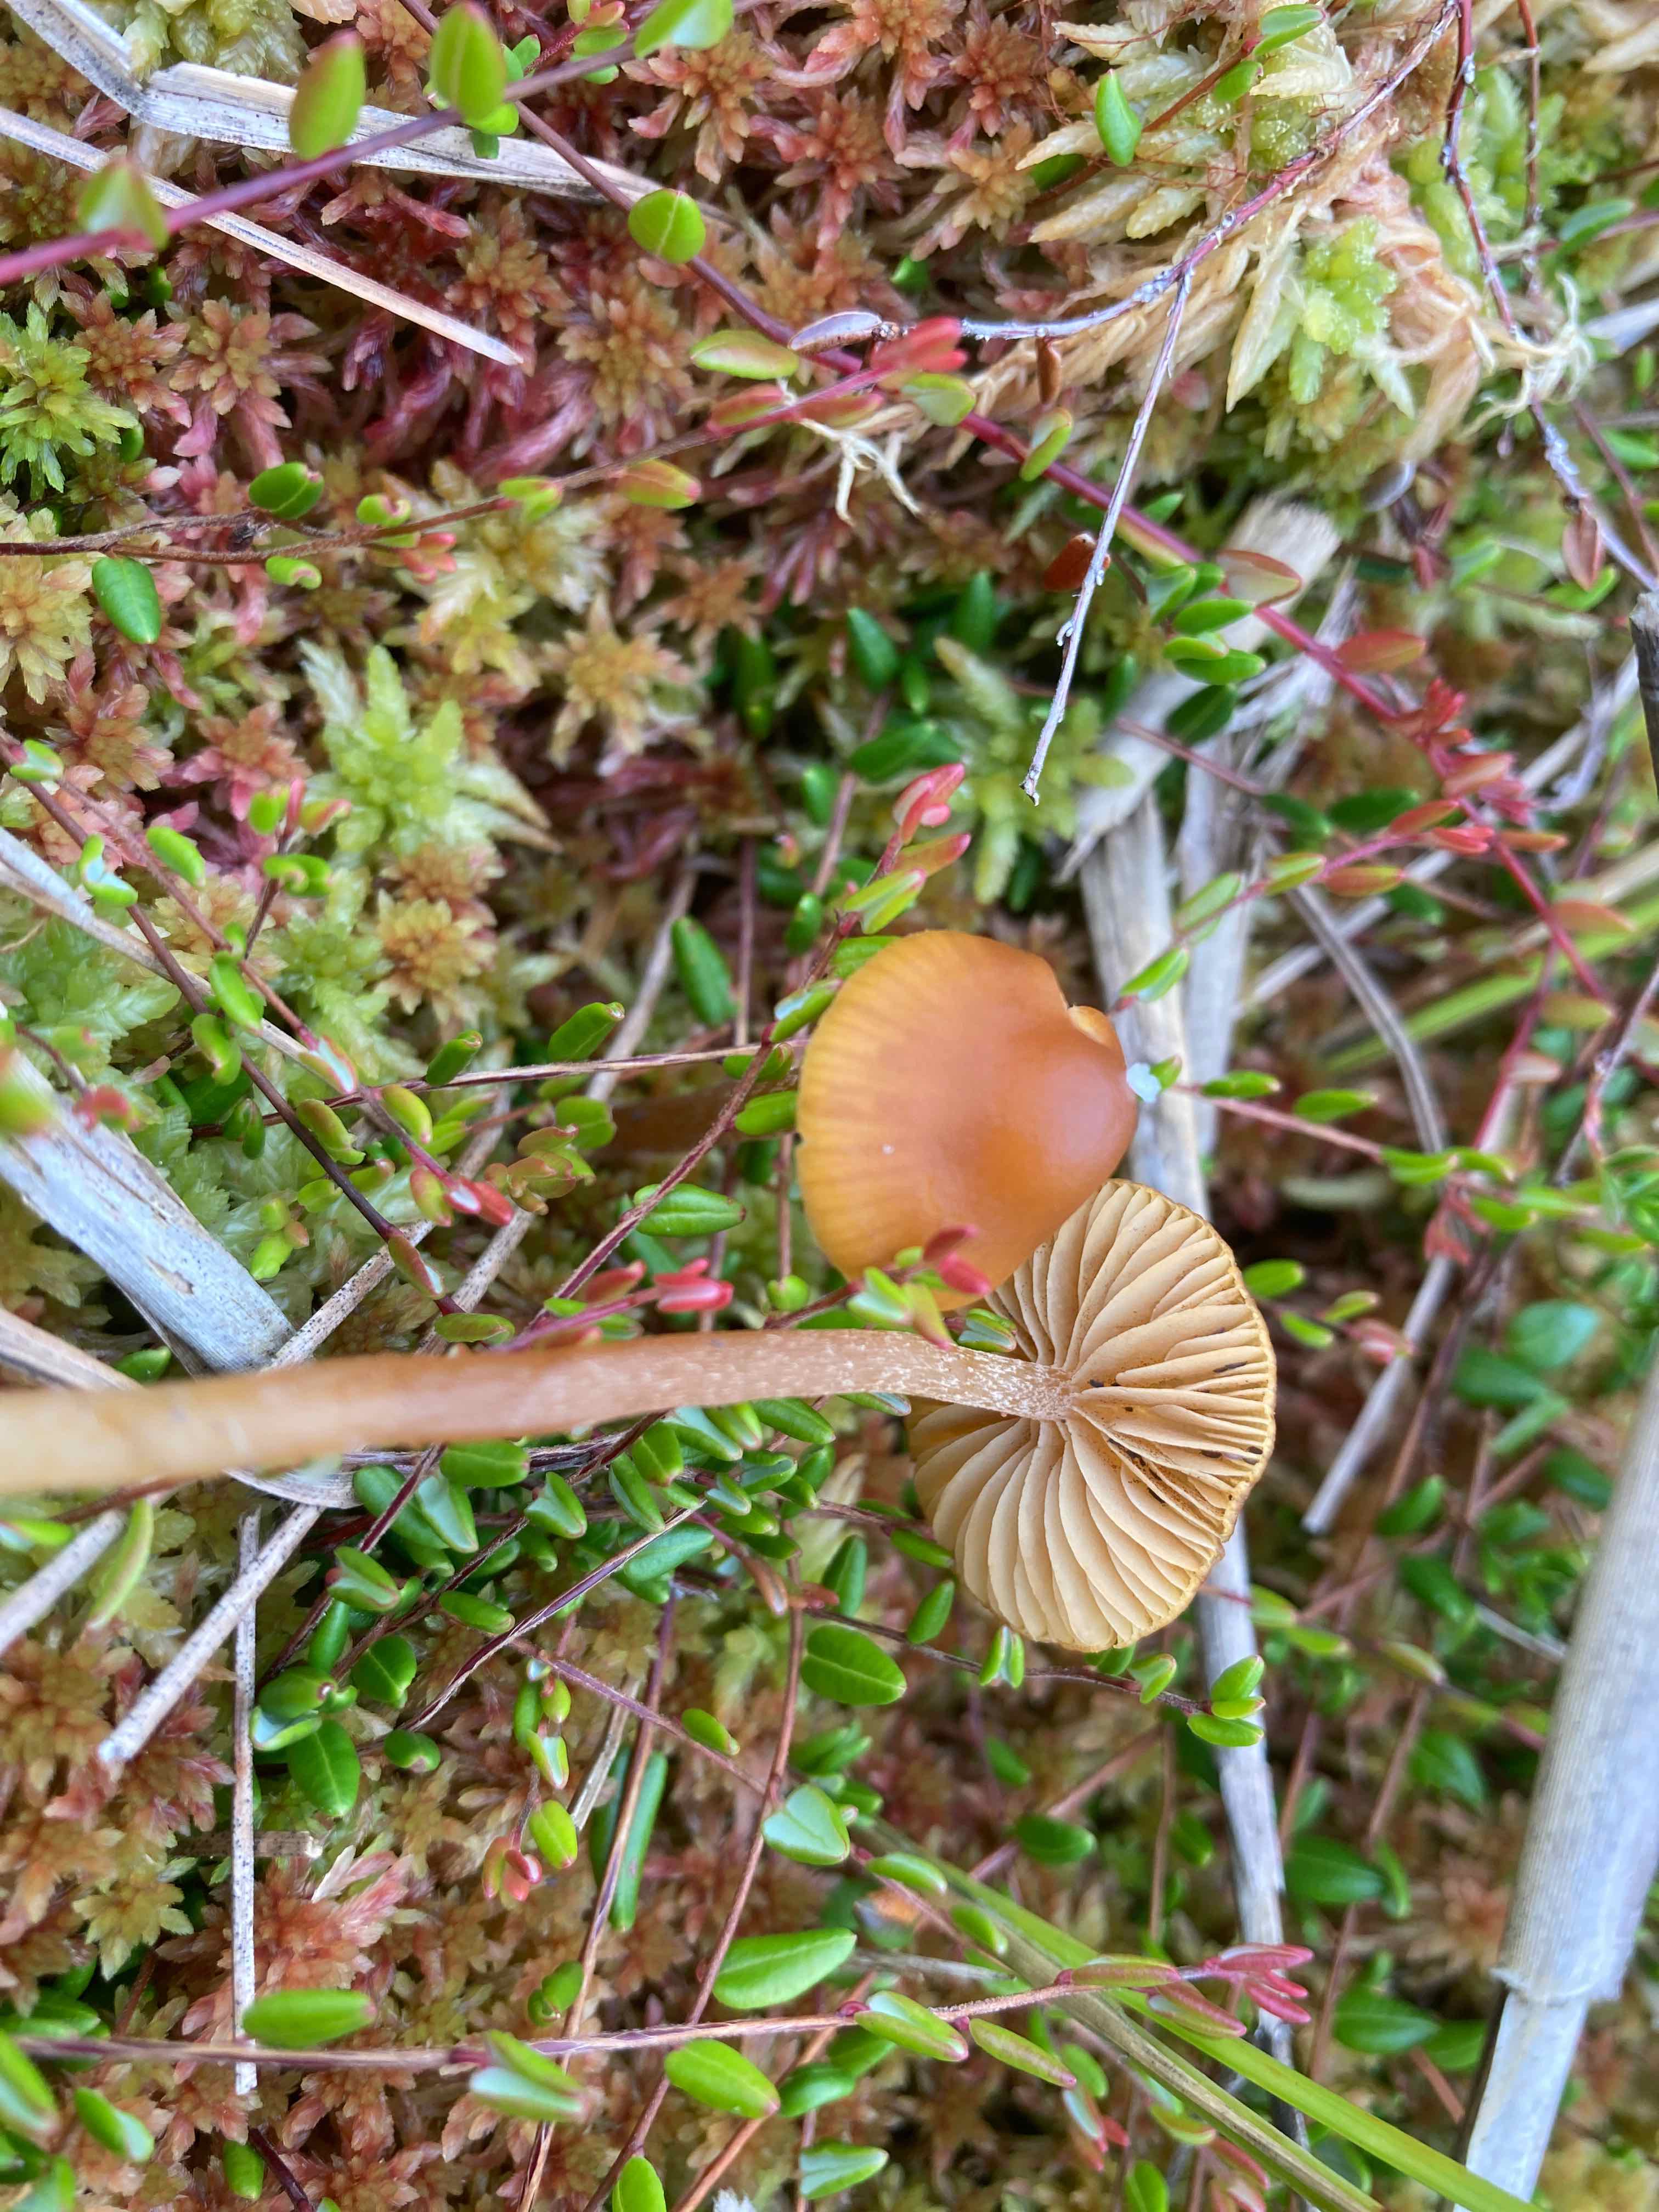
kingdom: Fungi
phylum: Basidiomycota
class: Agaricomycetes
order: Agaricales
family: Hymenogastraceae
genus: Galerina
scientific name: Galerina hybrida
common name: hængesæk-hjelmhat
